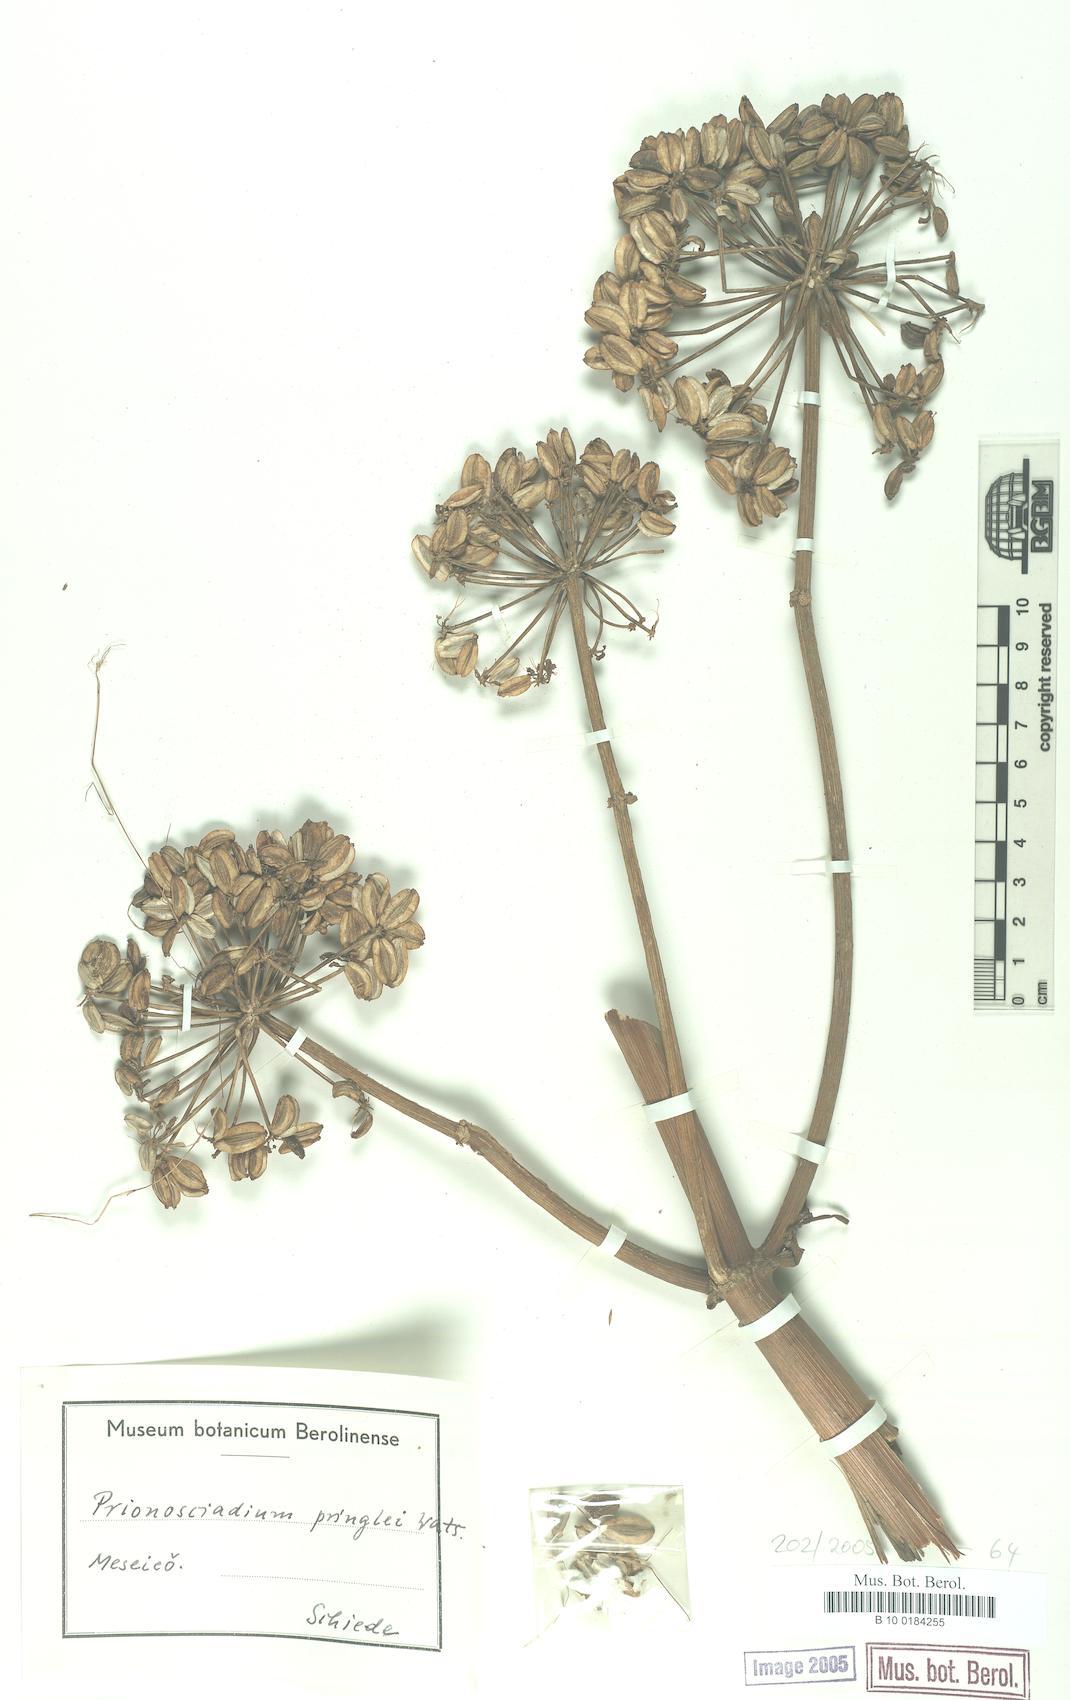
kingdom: Plantae
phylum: Tracheophyta
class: Magnoliopsida
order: Apiales
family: Apiaceae
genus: Prionosciadium
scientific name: Prionosciadium thapsoides
